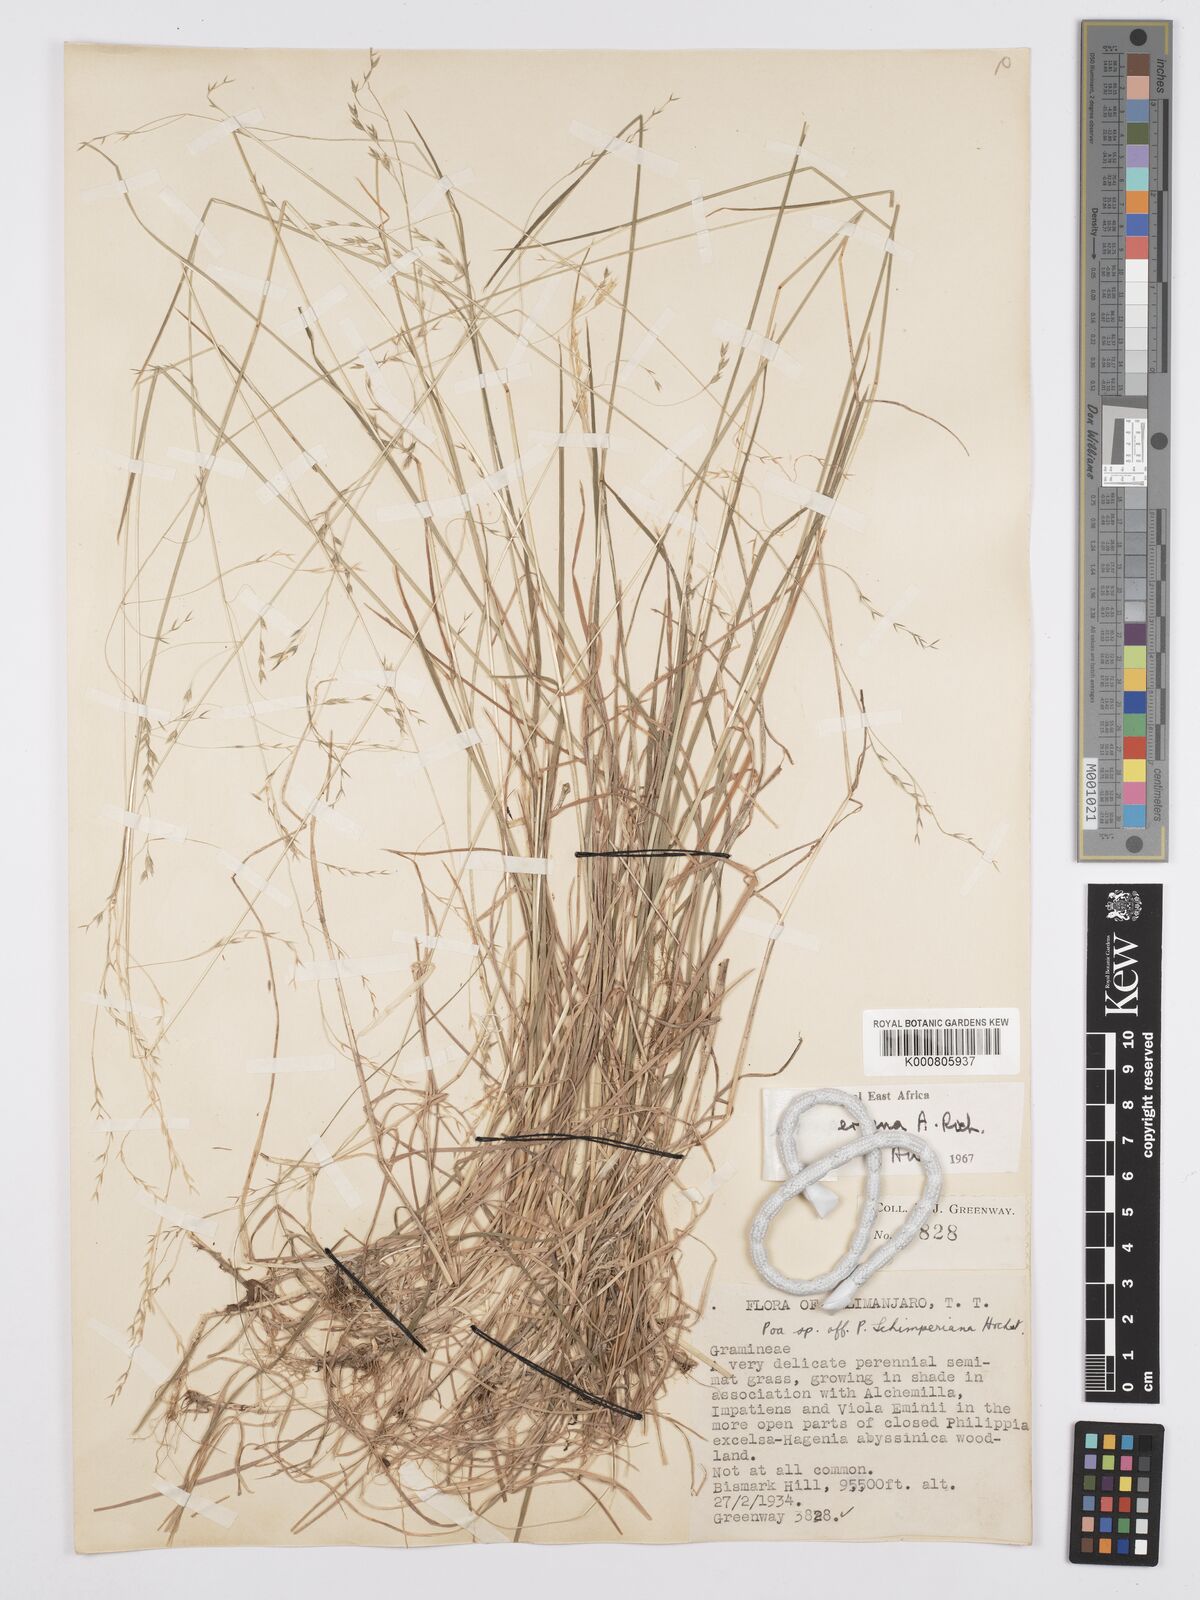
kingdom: Plantae
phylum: Tracheophyta
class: Liliopsida
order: Poales
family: Poaceae
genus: Poa
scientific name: Poa schimperiana
